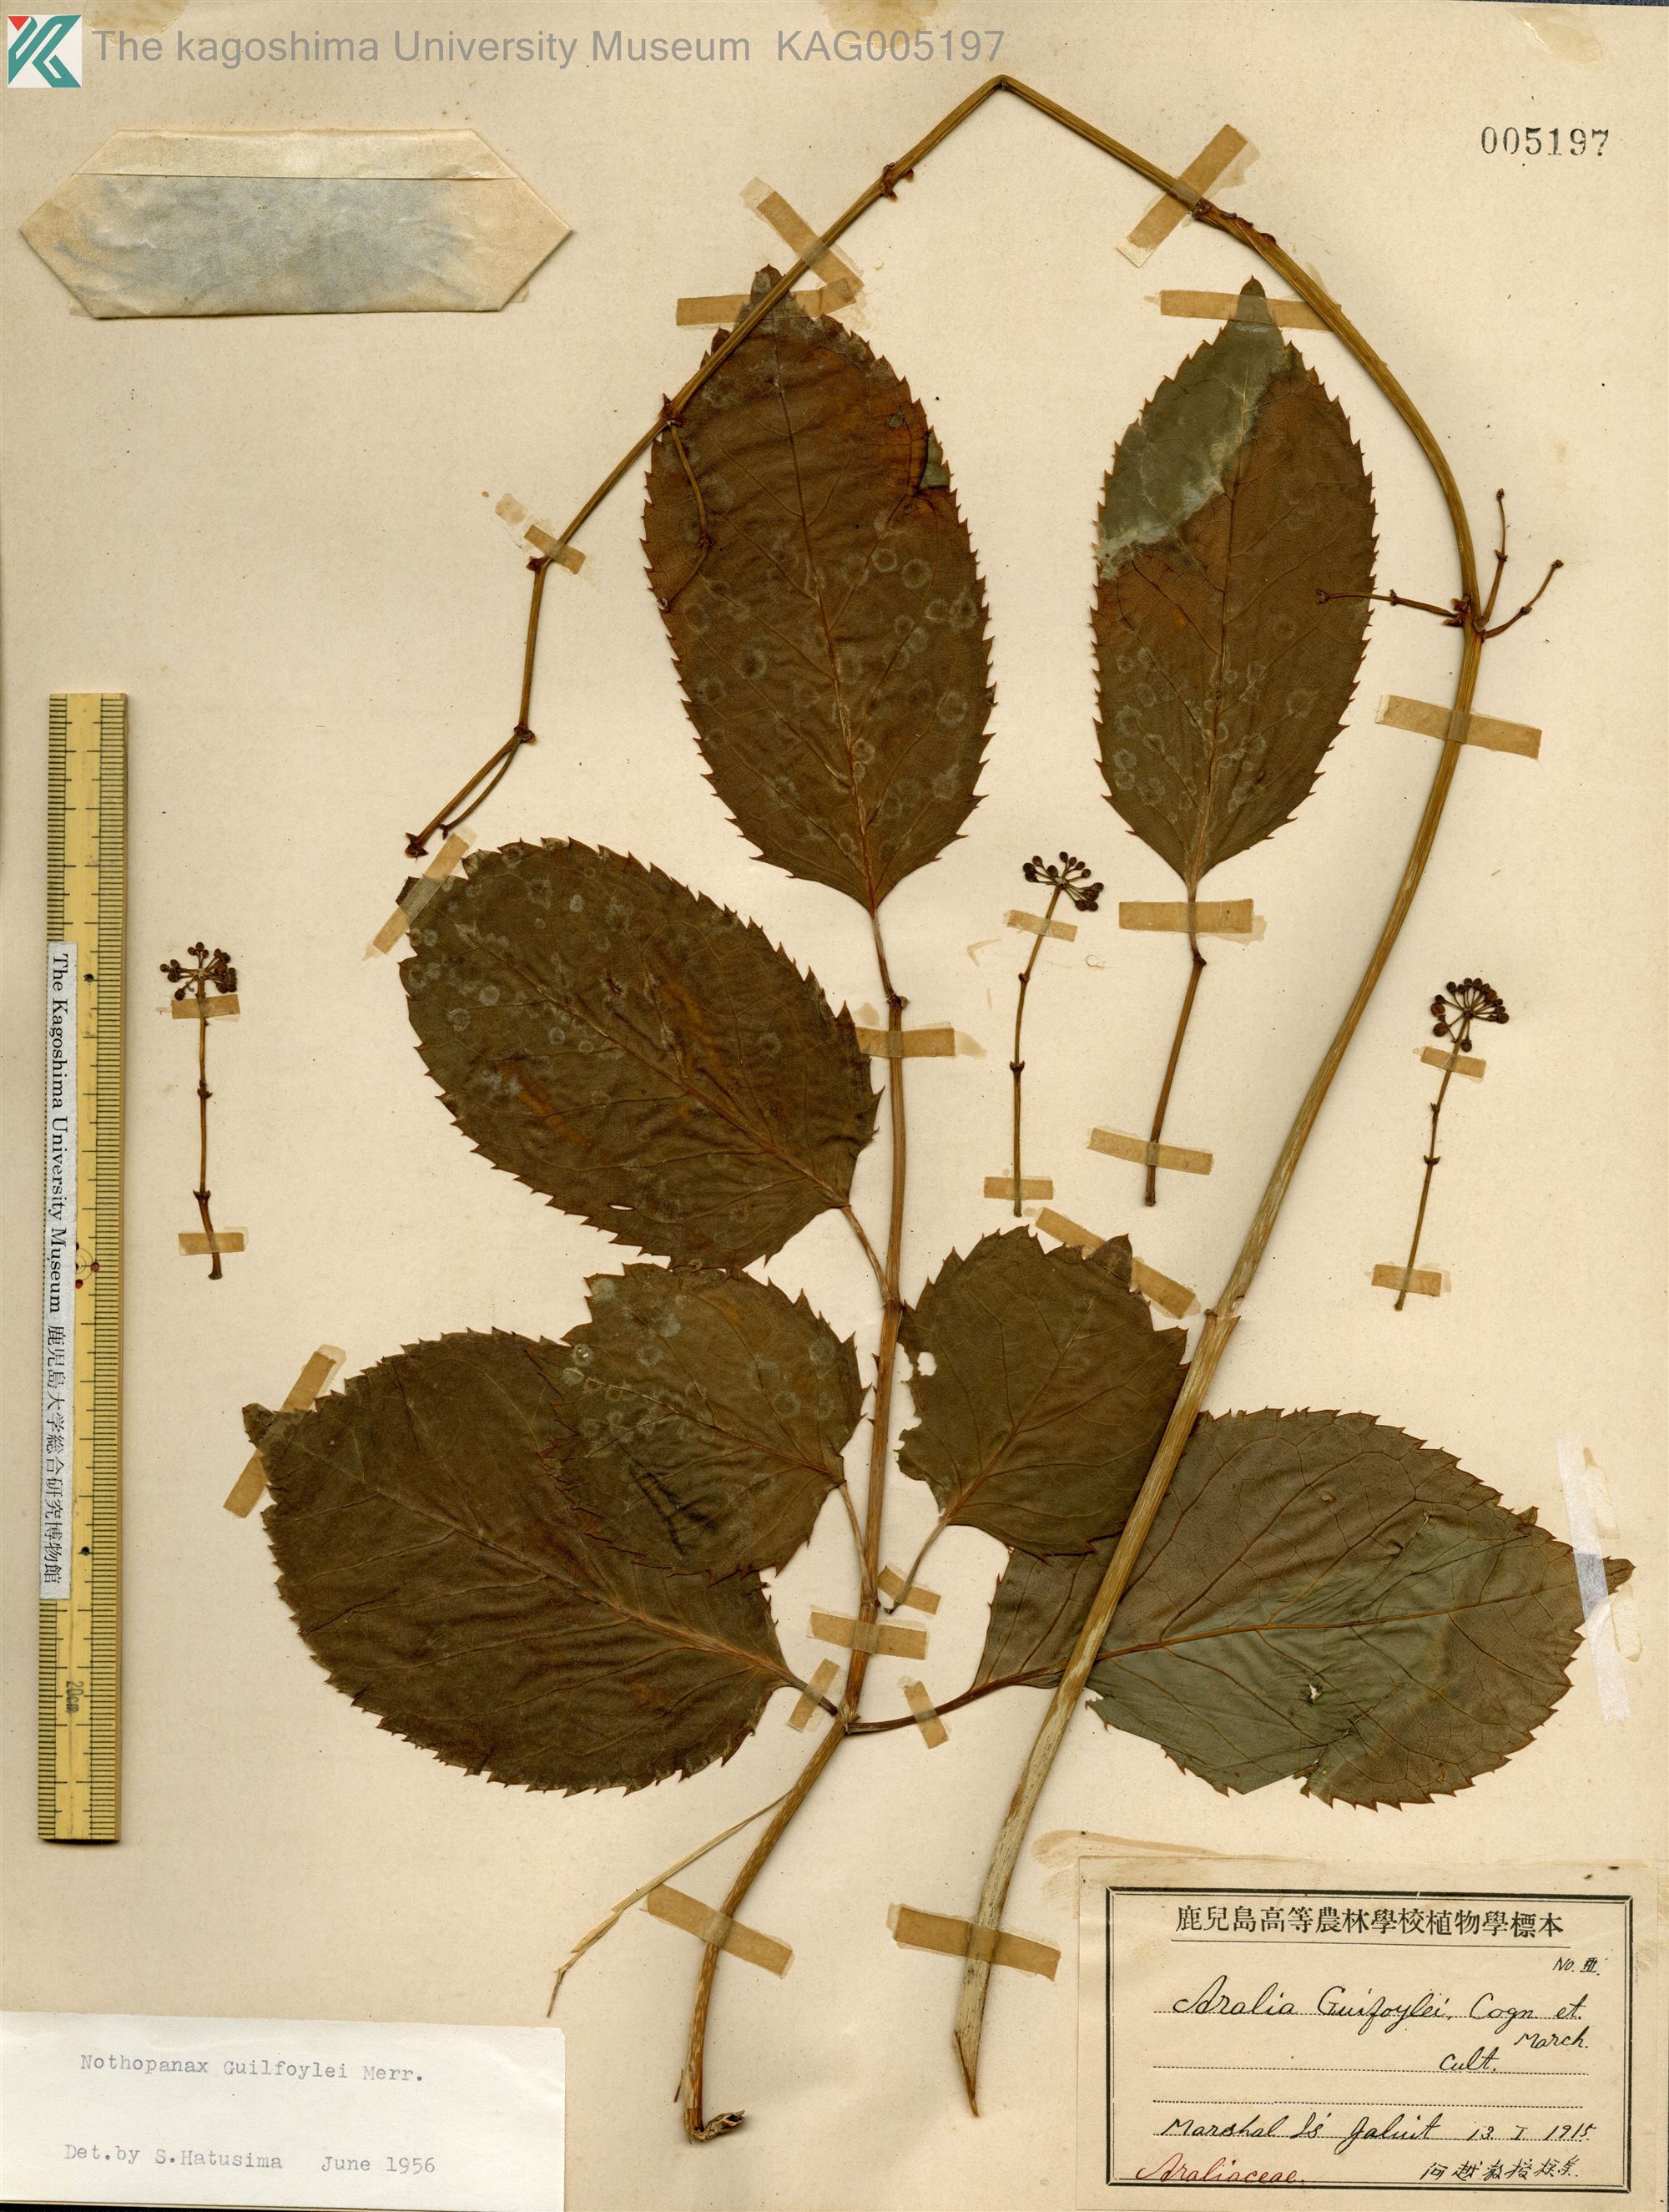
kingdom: Plantae
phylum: Tracheophyta
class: Magnoliopsida
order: Apiales
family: Araliaceae
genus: Polyscias
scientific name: Polyscias guilfoylei
